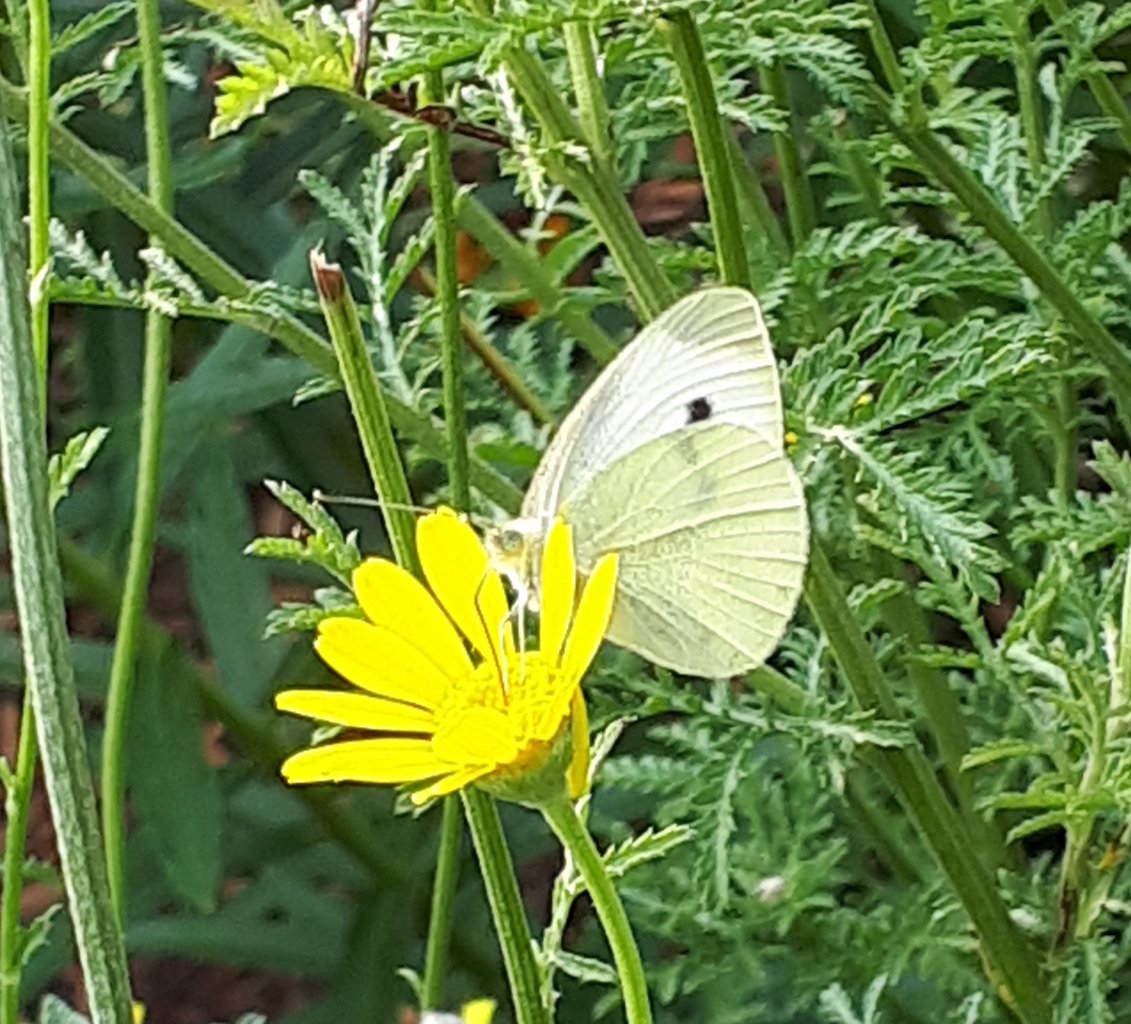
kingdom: Animalia
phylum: Arthropoda
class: Insecta
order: Lepidoptera
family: Pieridae
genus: Pieris
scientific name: Pieris rapae
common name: Cabbage White
